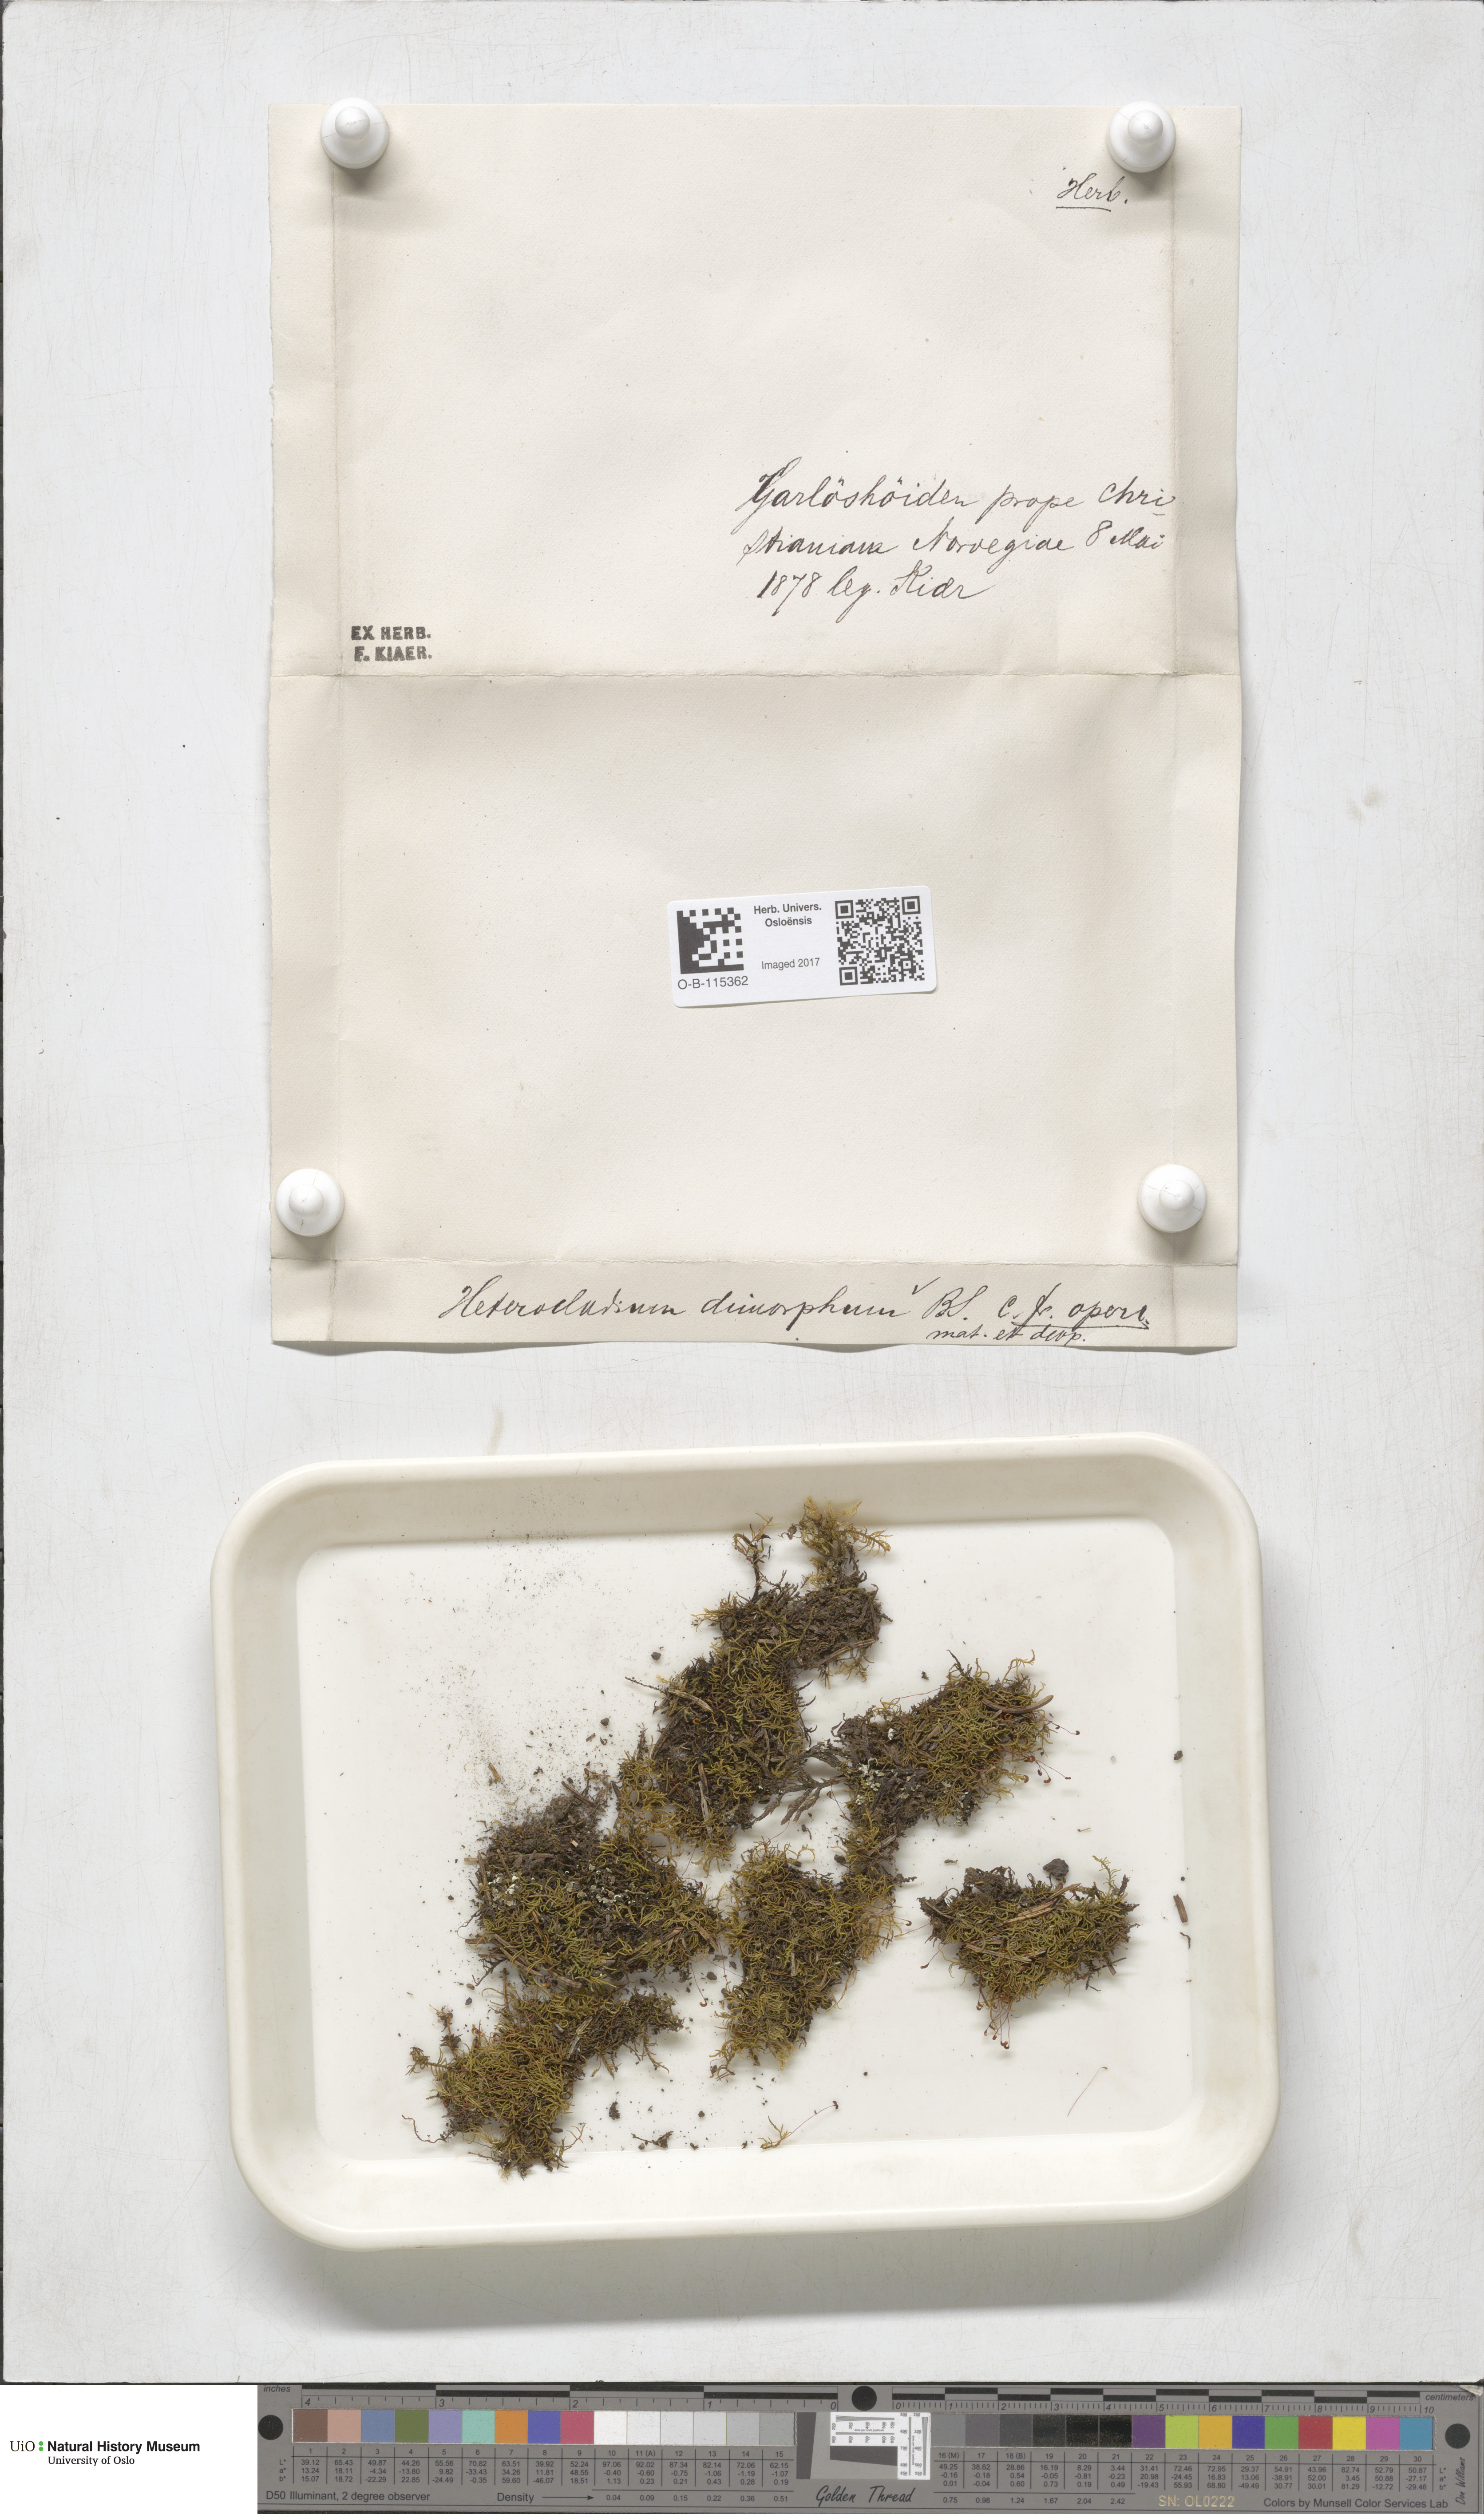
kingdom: Plantae
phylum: Bryophyta
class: Bryopsida
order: Hypnales
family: Heterocladiellaceae
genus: Heterocladiella
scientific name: Heterocladiella dimorpha
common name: Dimorphous tamarisk-moss
